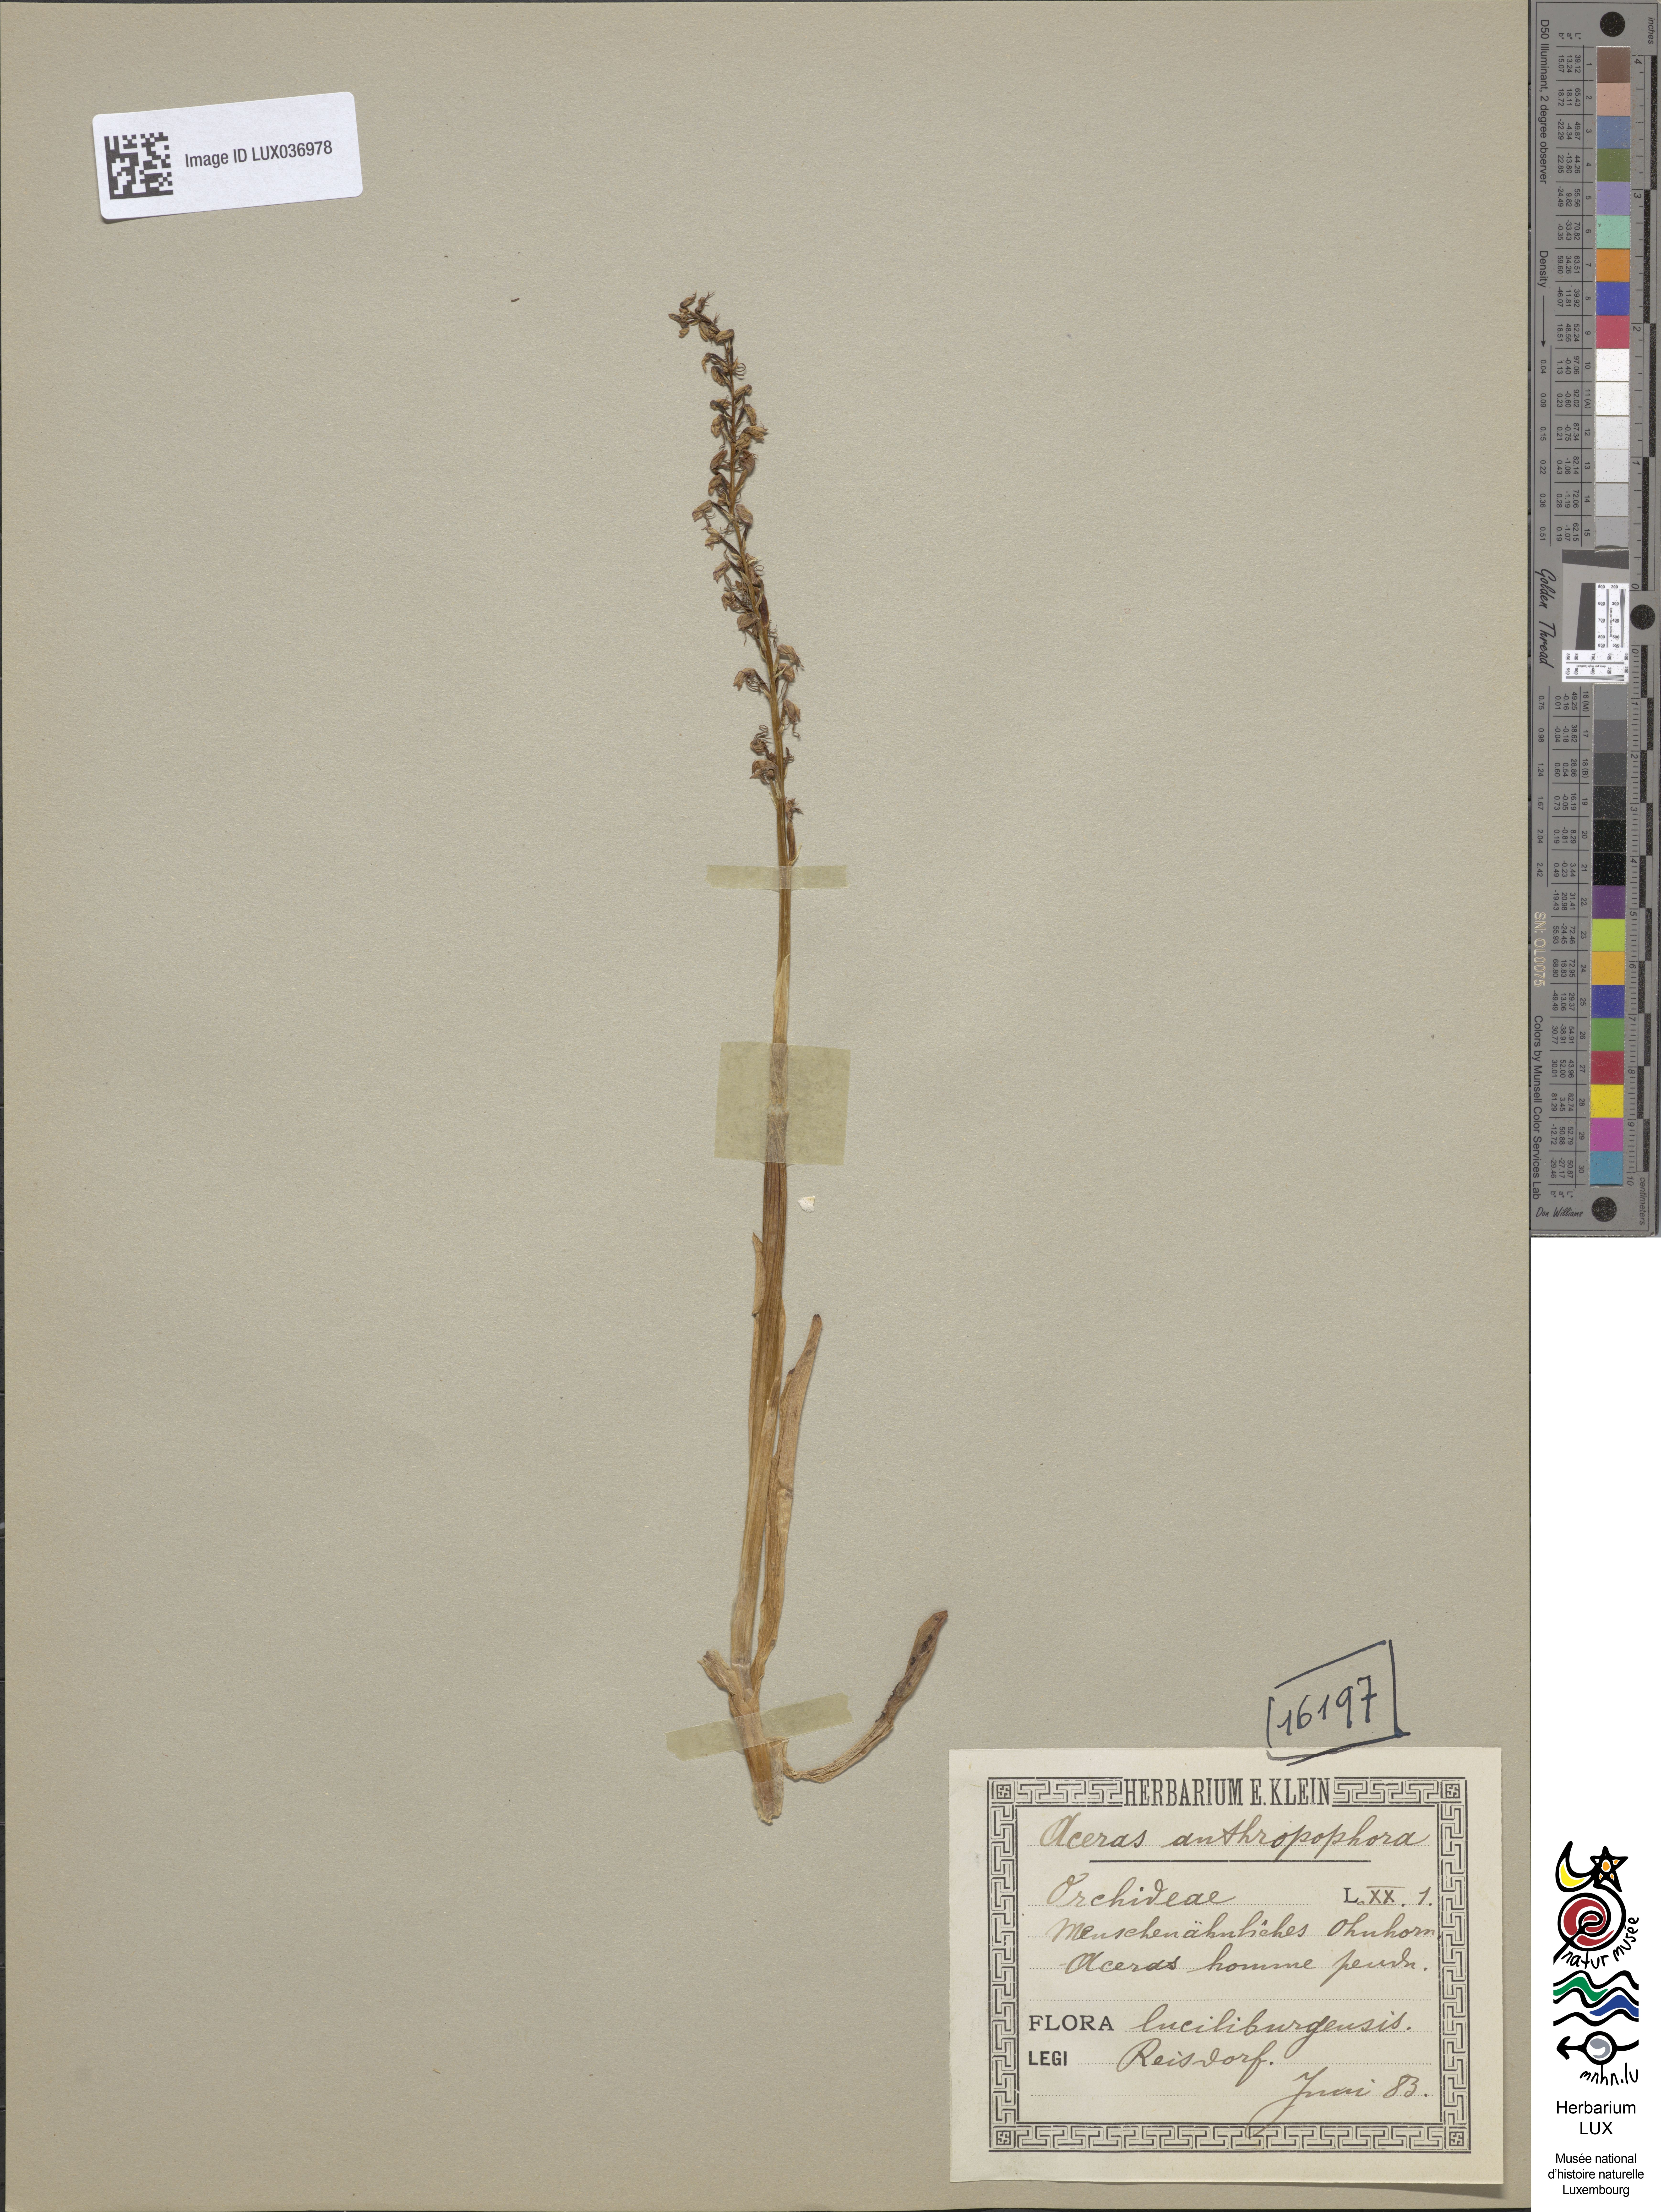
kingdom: Plantae
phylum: Tracheophyta
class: Liliopsida
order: Asparagales
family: Orchidaceae
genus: Orchis
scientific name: Orchis anthropophora
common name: Man orchid
